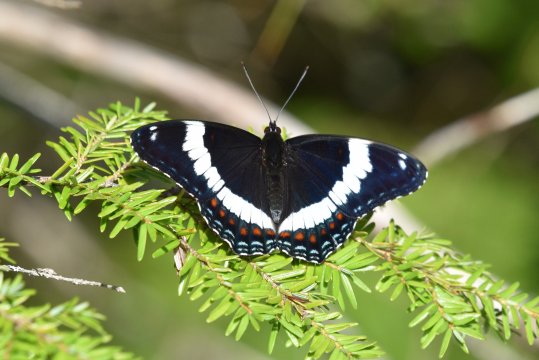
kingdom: Animalia
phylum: Arthropoda
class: Insecta
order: Lepidoptera
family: Nymphalidae
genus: Limenitis
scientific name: Limenitis arthemis
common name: Red-spotted Admiral
